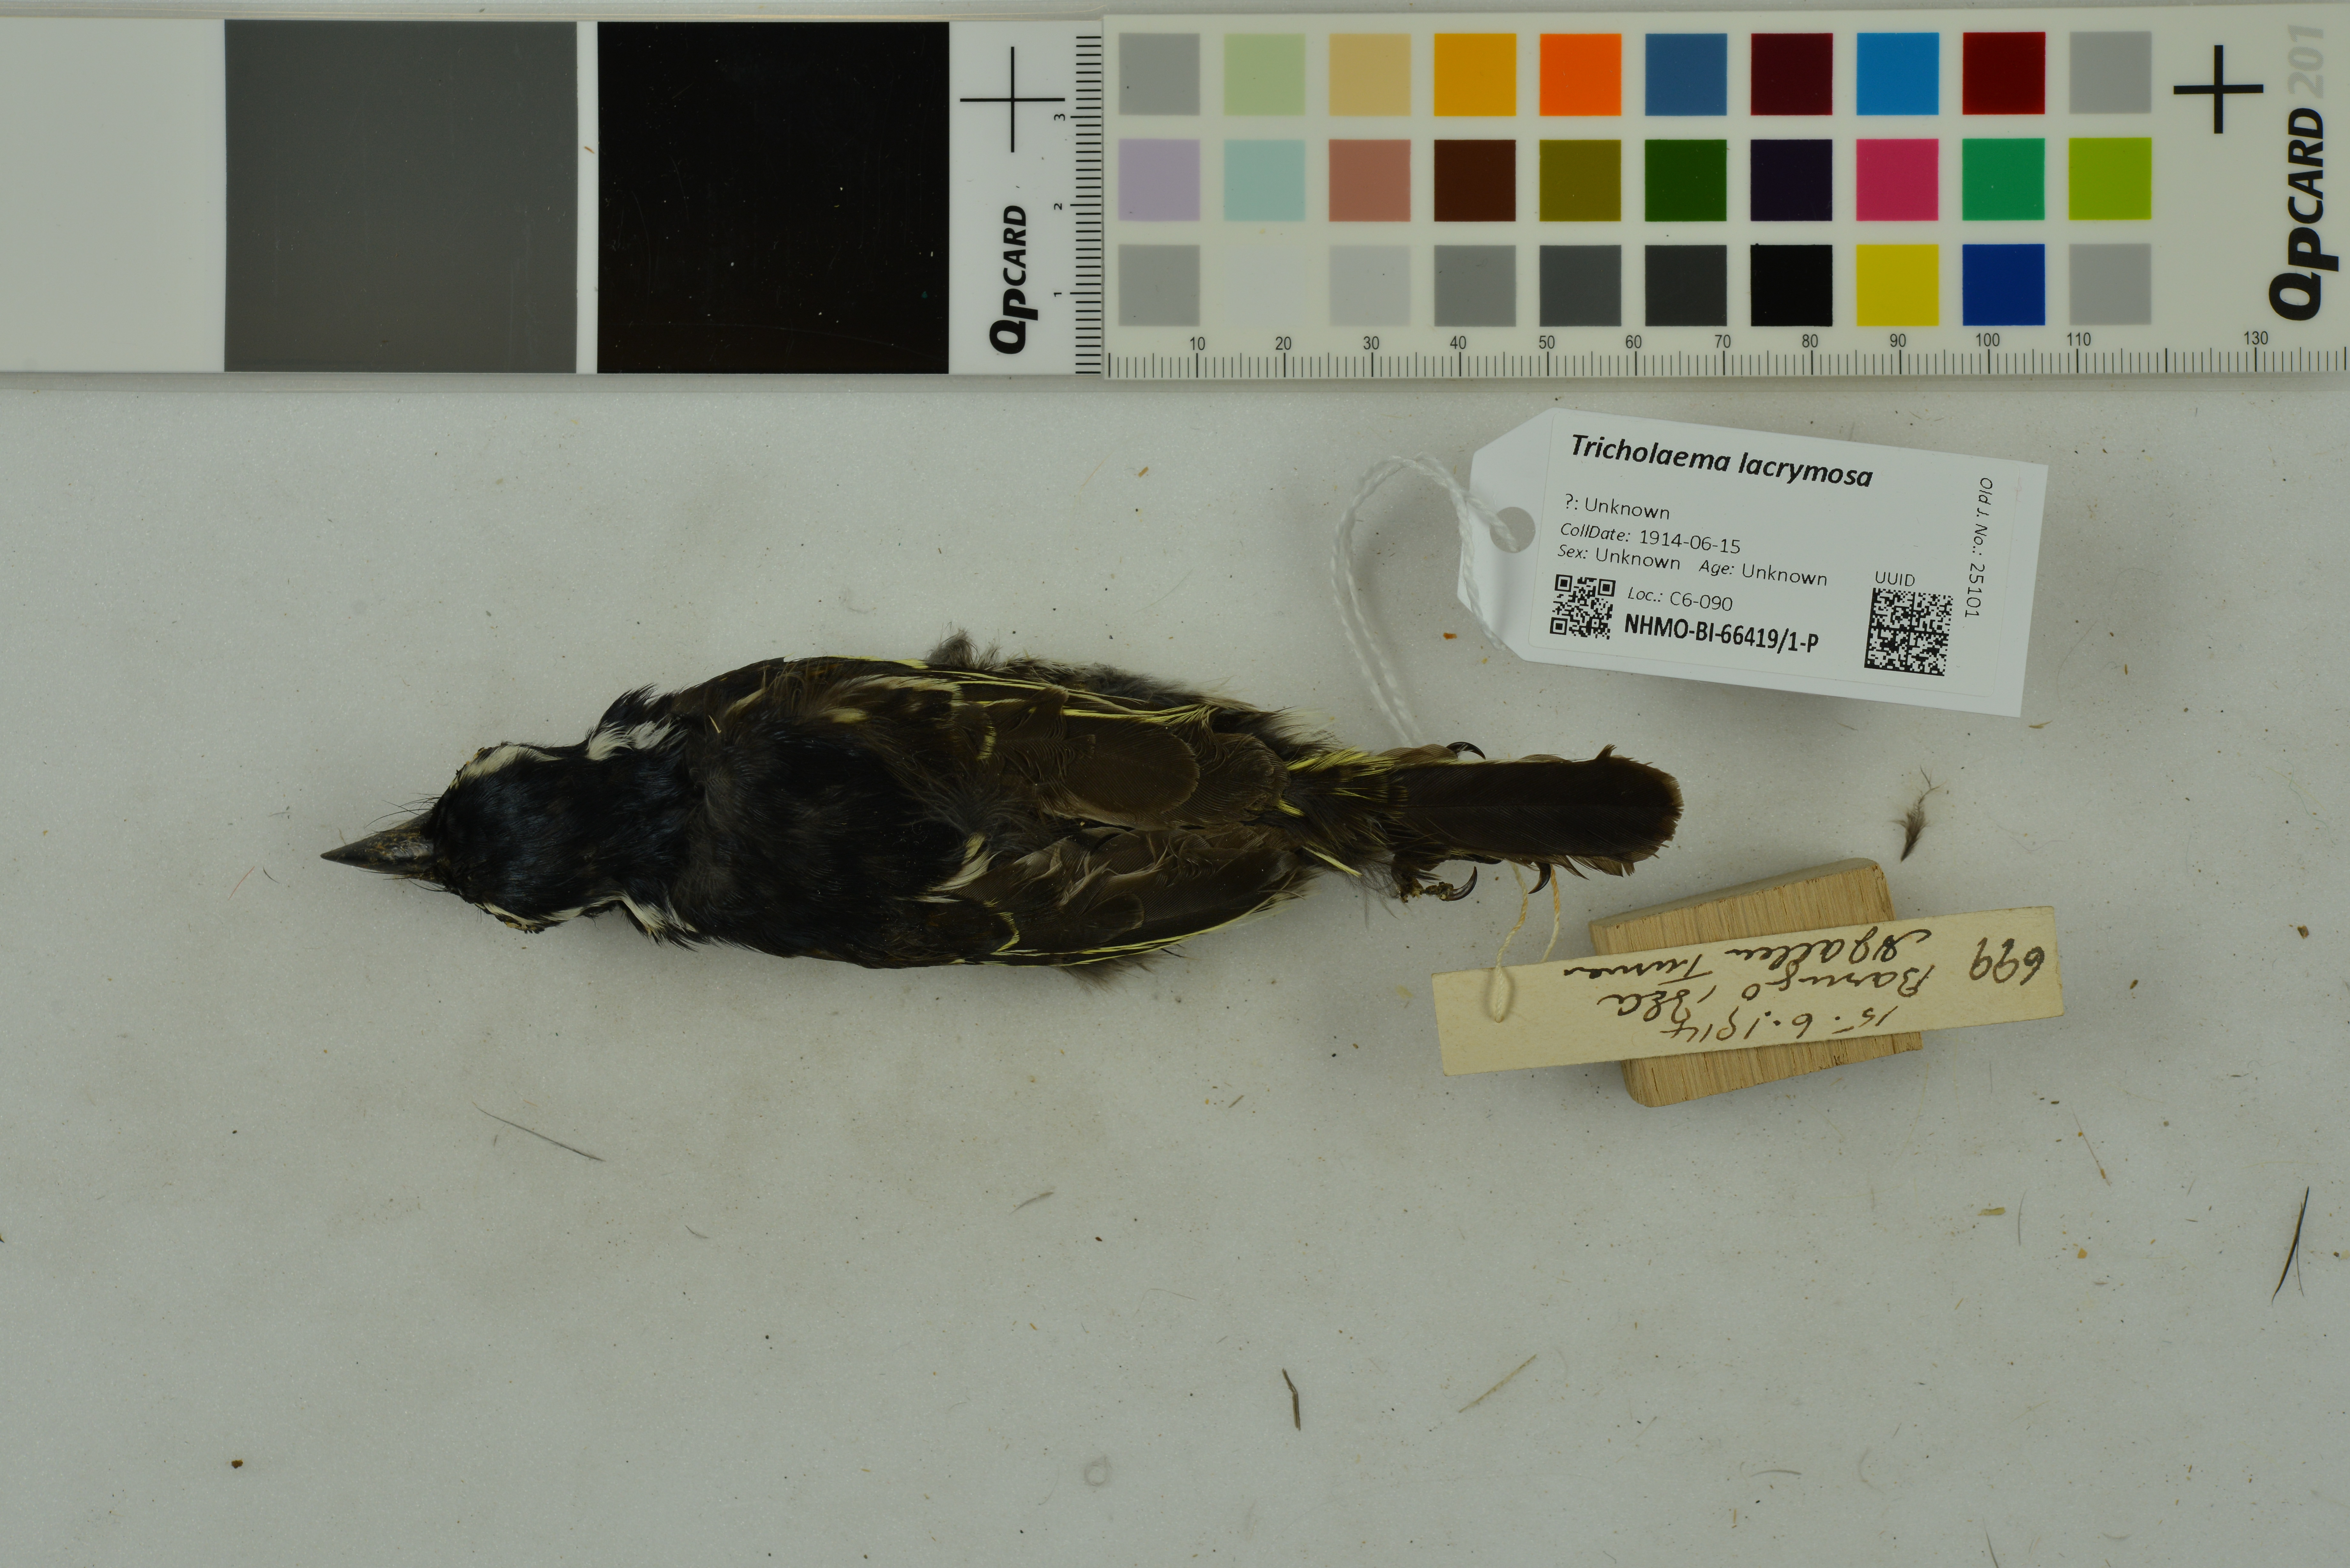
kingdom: Animalia
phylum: Chordata
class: Aves
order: Piciformes
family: Lybiidae
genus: Tricholaema
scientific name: Tricholaema lacrymosa
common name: Spot-flanked barbet
